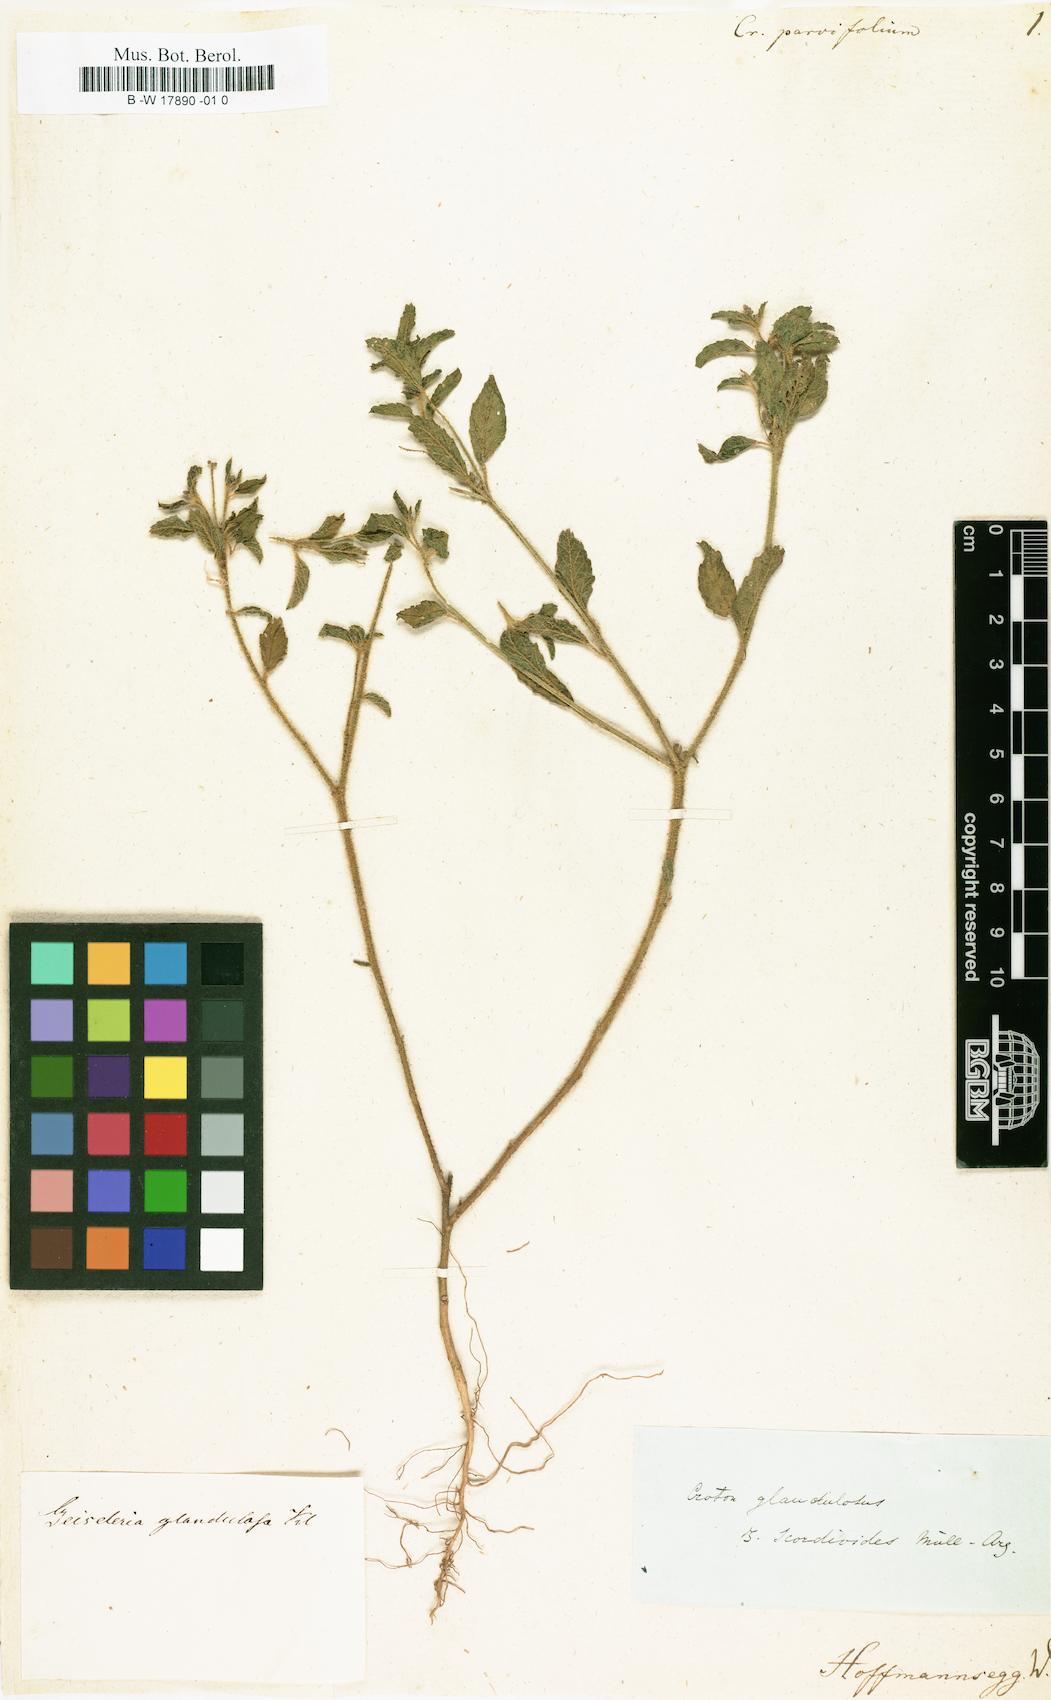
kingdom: Plantae
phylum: Tracheophyta
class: Magnoliopsida
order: Malpighiales
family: Euphorbiaceae
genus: Croton
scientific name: Croton parvifolius
